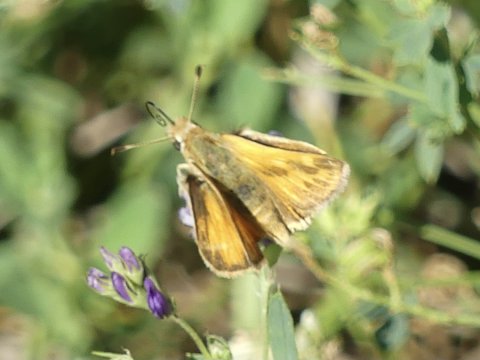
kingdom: Animalia
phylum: Arthropoda
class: Insecta
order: Lepidoptera
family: Hesperiidae
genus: Ochlodes
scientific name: Ochlodes sylvanoides
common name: Woodland Skipper
